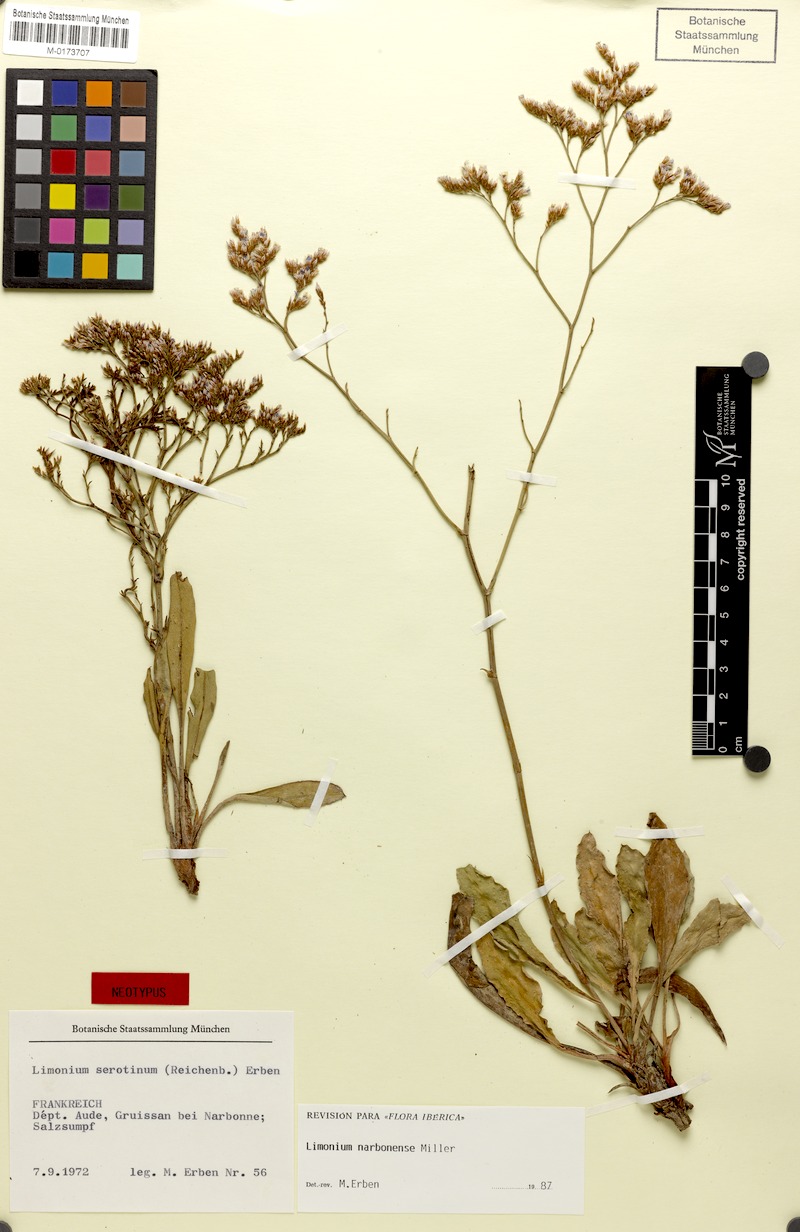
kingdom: Plantae
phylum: Tracheophyta
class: Magnoliopsida
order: Caryophyllales
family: Plumbaginaceae
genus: Limonium
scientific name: Limonium narbonense
